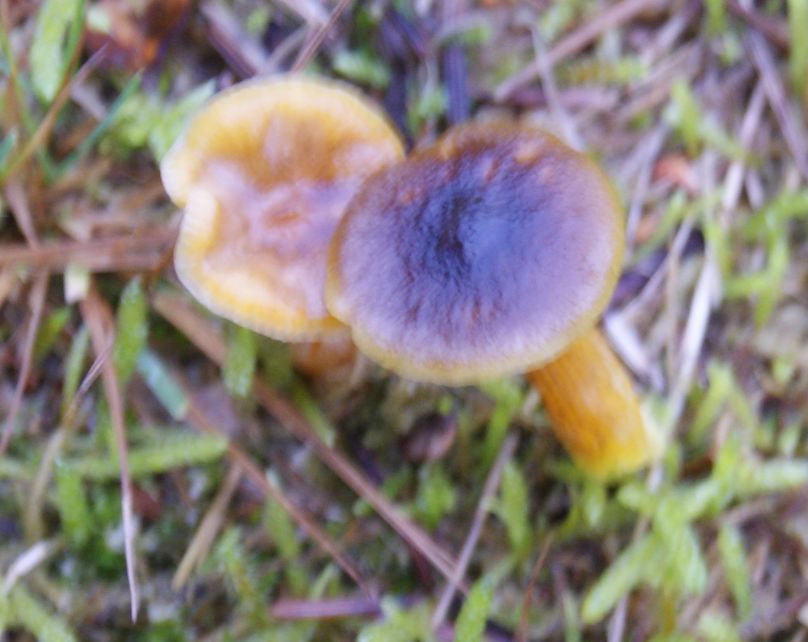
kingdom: Fungi
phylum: Basidiomycota
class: Agaricomycetes
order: Agaricales
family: Hygrophoraceae
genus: Hygrophorus
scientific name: Hygrophorus hypothejus
